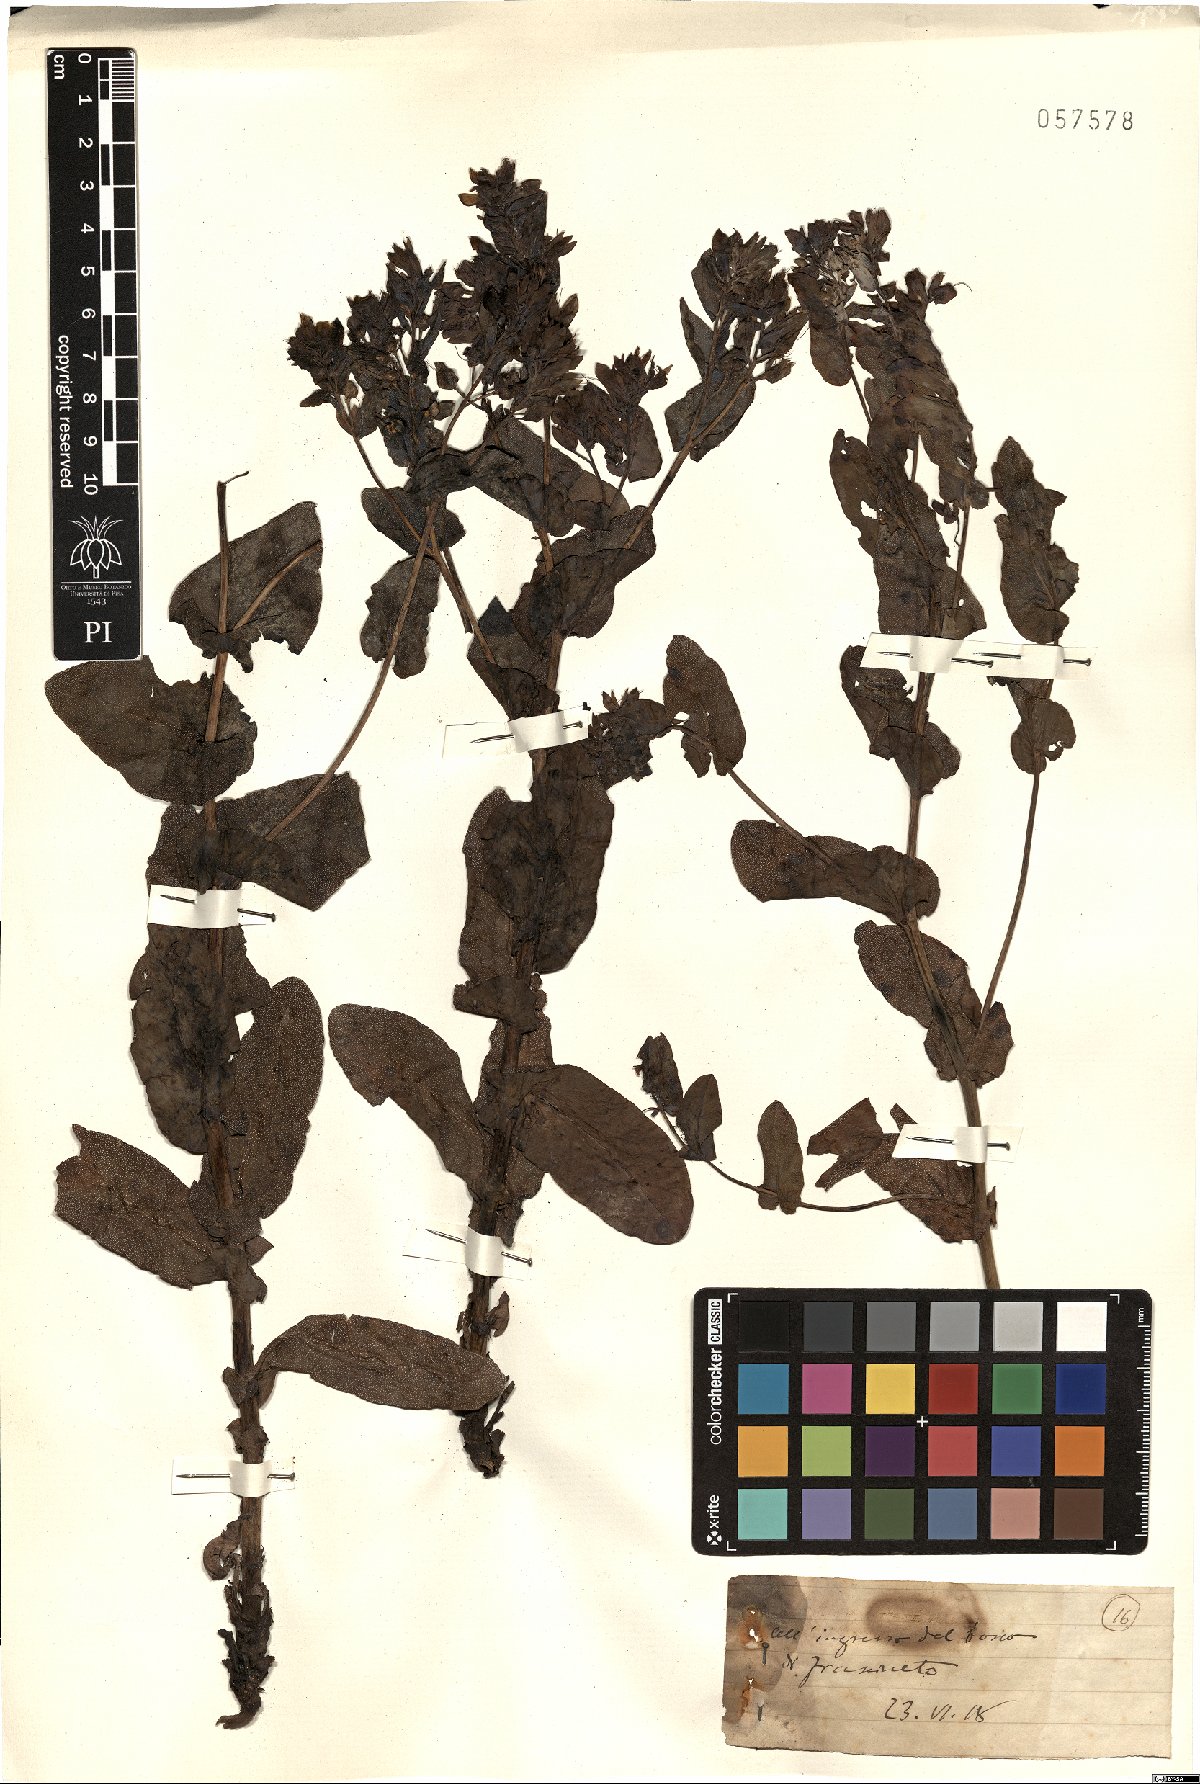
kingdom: Plantae
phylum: Tracheophyta
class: Magnoliopsida
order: Boraginales
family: Boraginaceae
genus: Cerinthe
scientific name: Cerinthe
